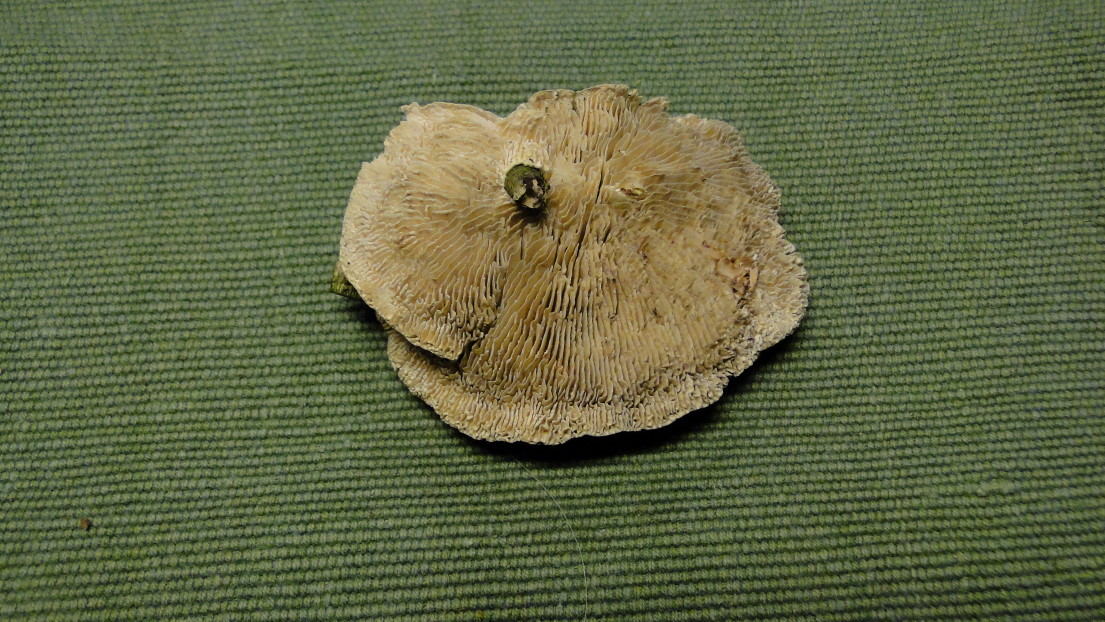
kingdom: Fungi
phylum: Basidiomycota
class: Agaricomycetes
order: Polyporales
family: Polyporaceae
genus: Lenzites
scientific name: Lenzites betulinus
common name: birke-læderporesvamp
